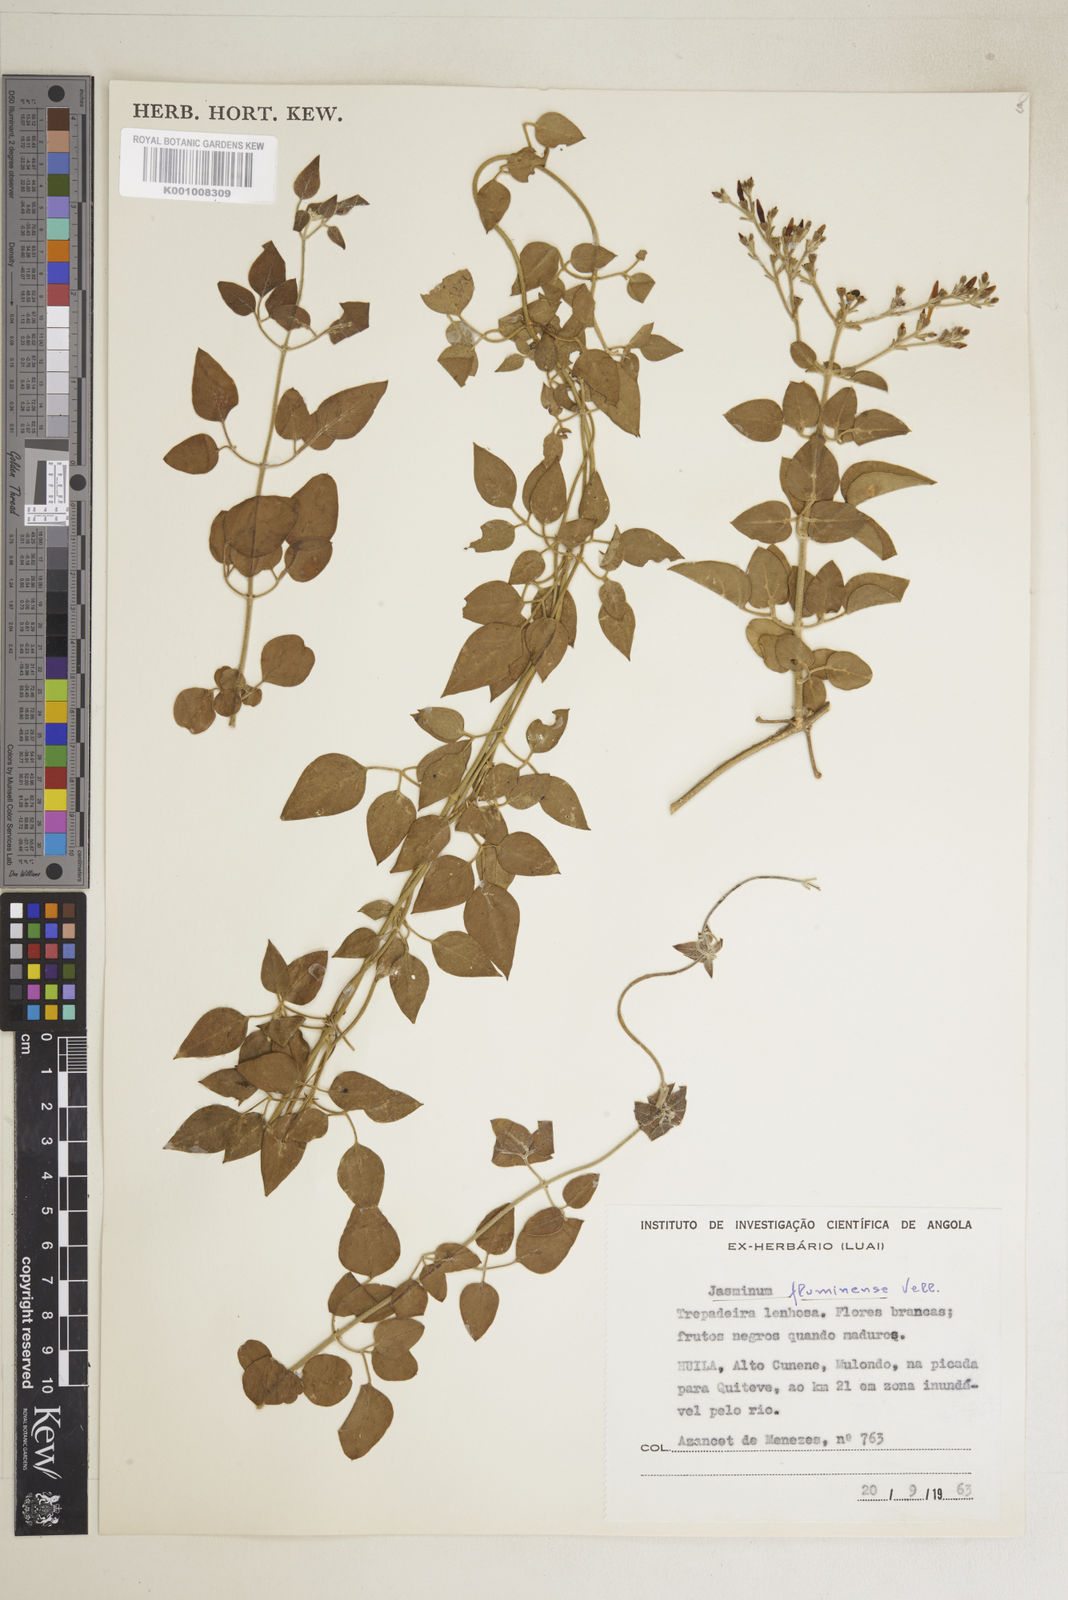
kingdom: Plantae
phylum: Tracheophyta
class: Magnoliopsida
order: Lamiales
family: Oleaceae
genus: Jasminum
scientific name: Jasminum fluminense
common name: Brazilian jasmine
